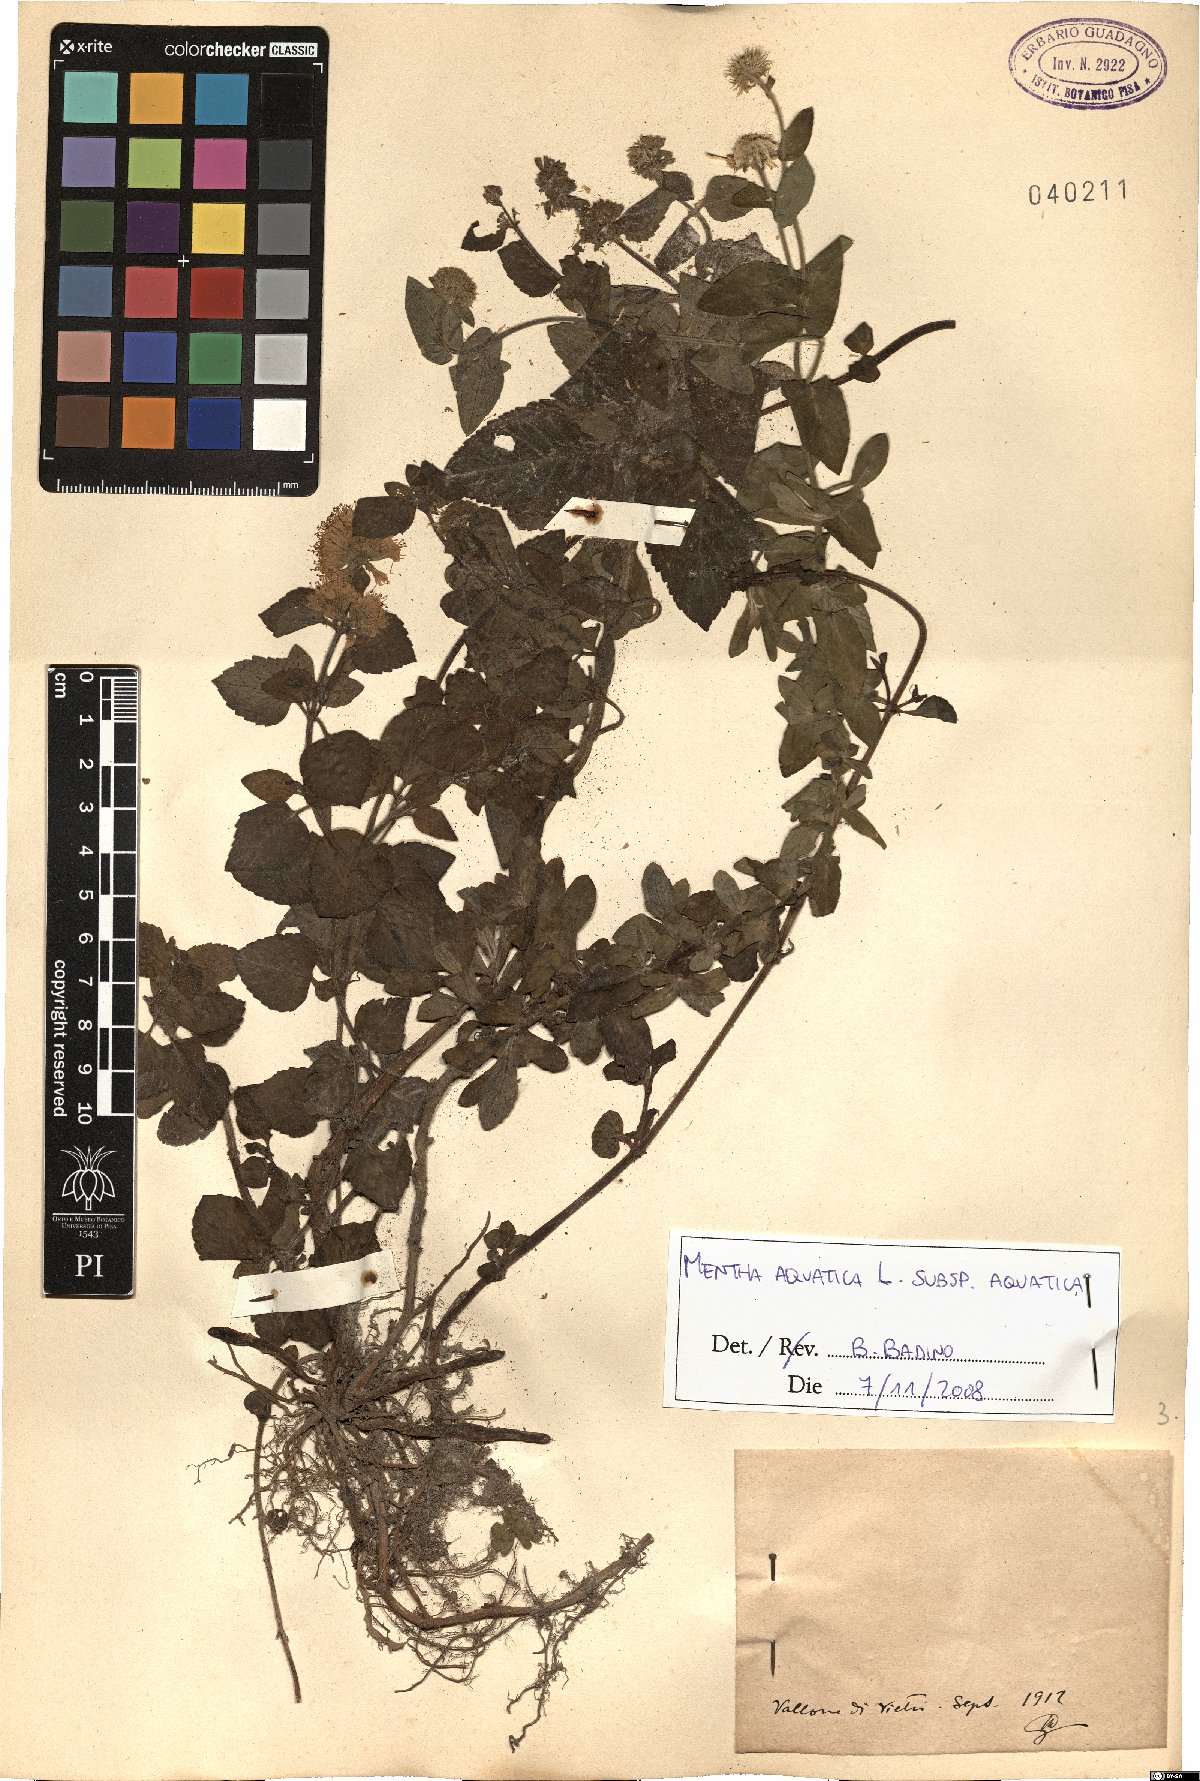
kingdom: Plantae
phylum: Tracheophyta
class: Magnoliopsida
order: Lamiales
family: Lamiaceae
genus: Mentha
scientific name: Mentha aquatica
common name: Water mint
